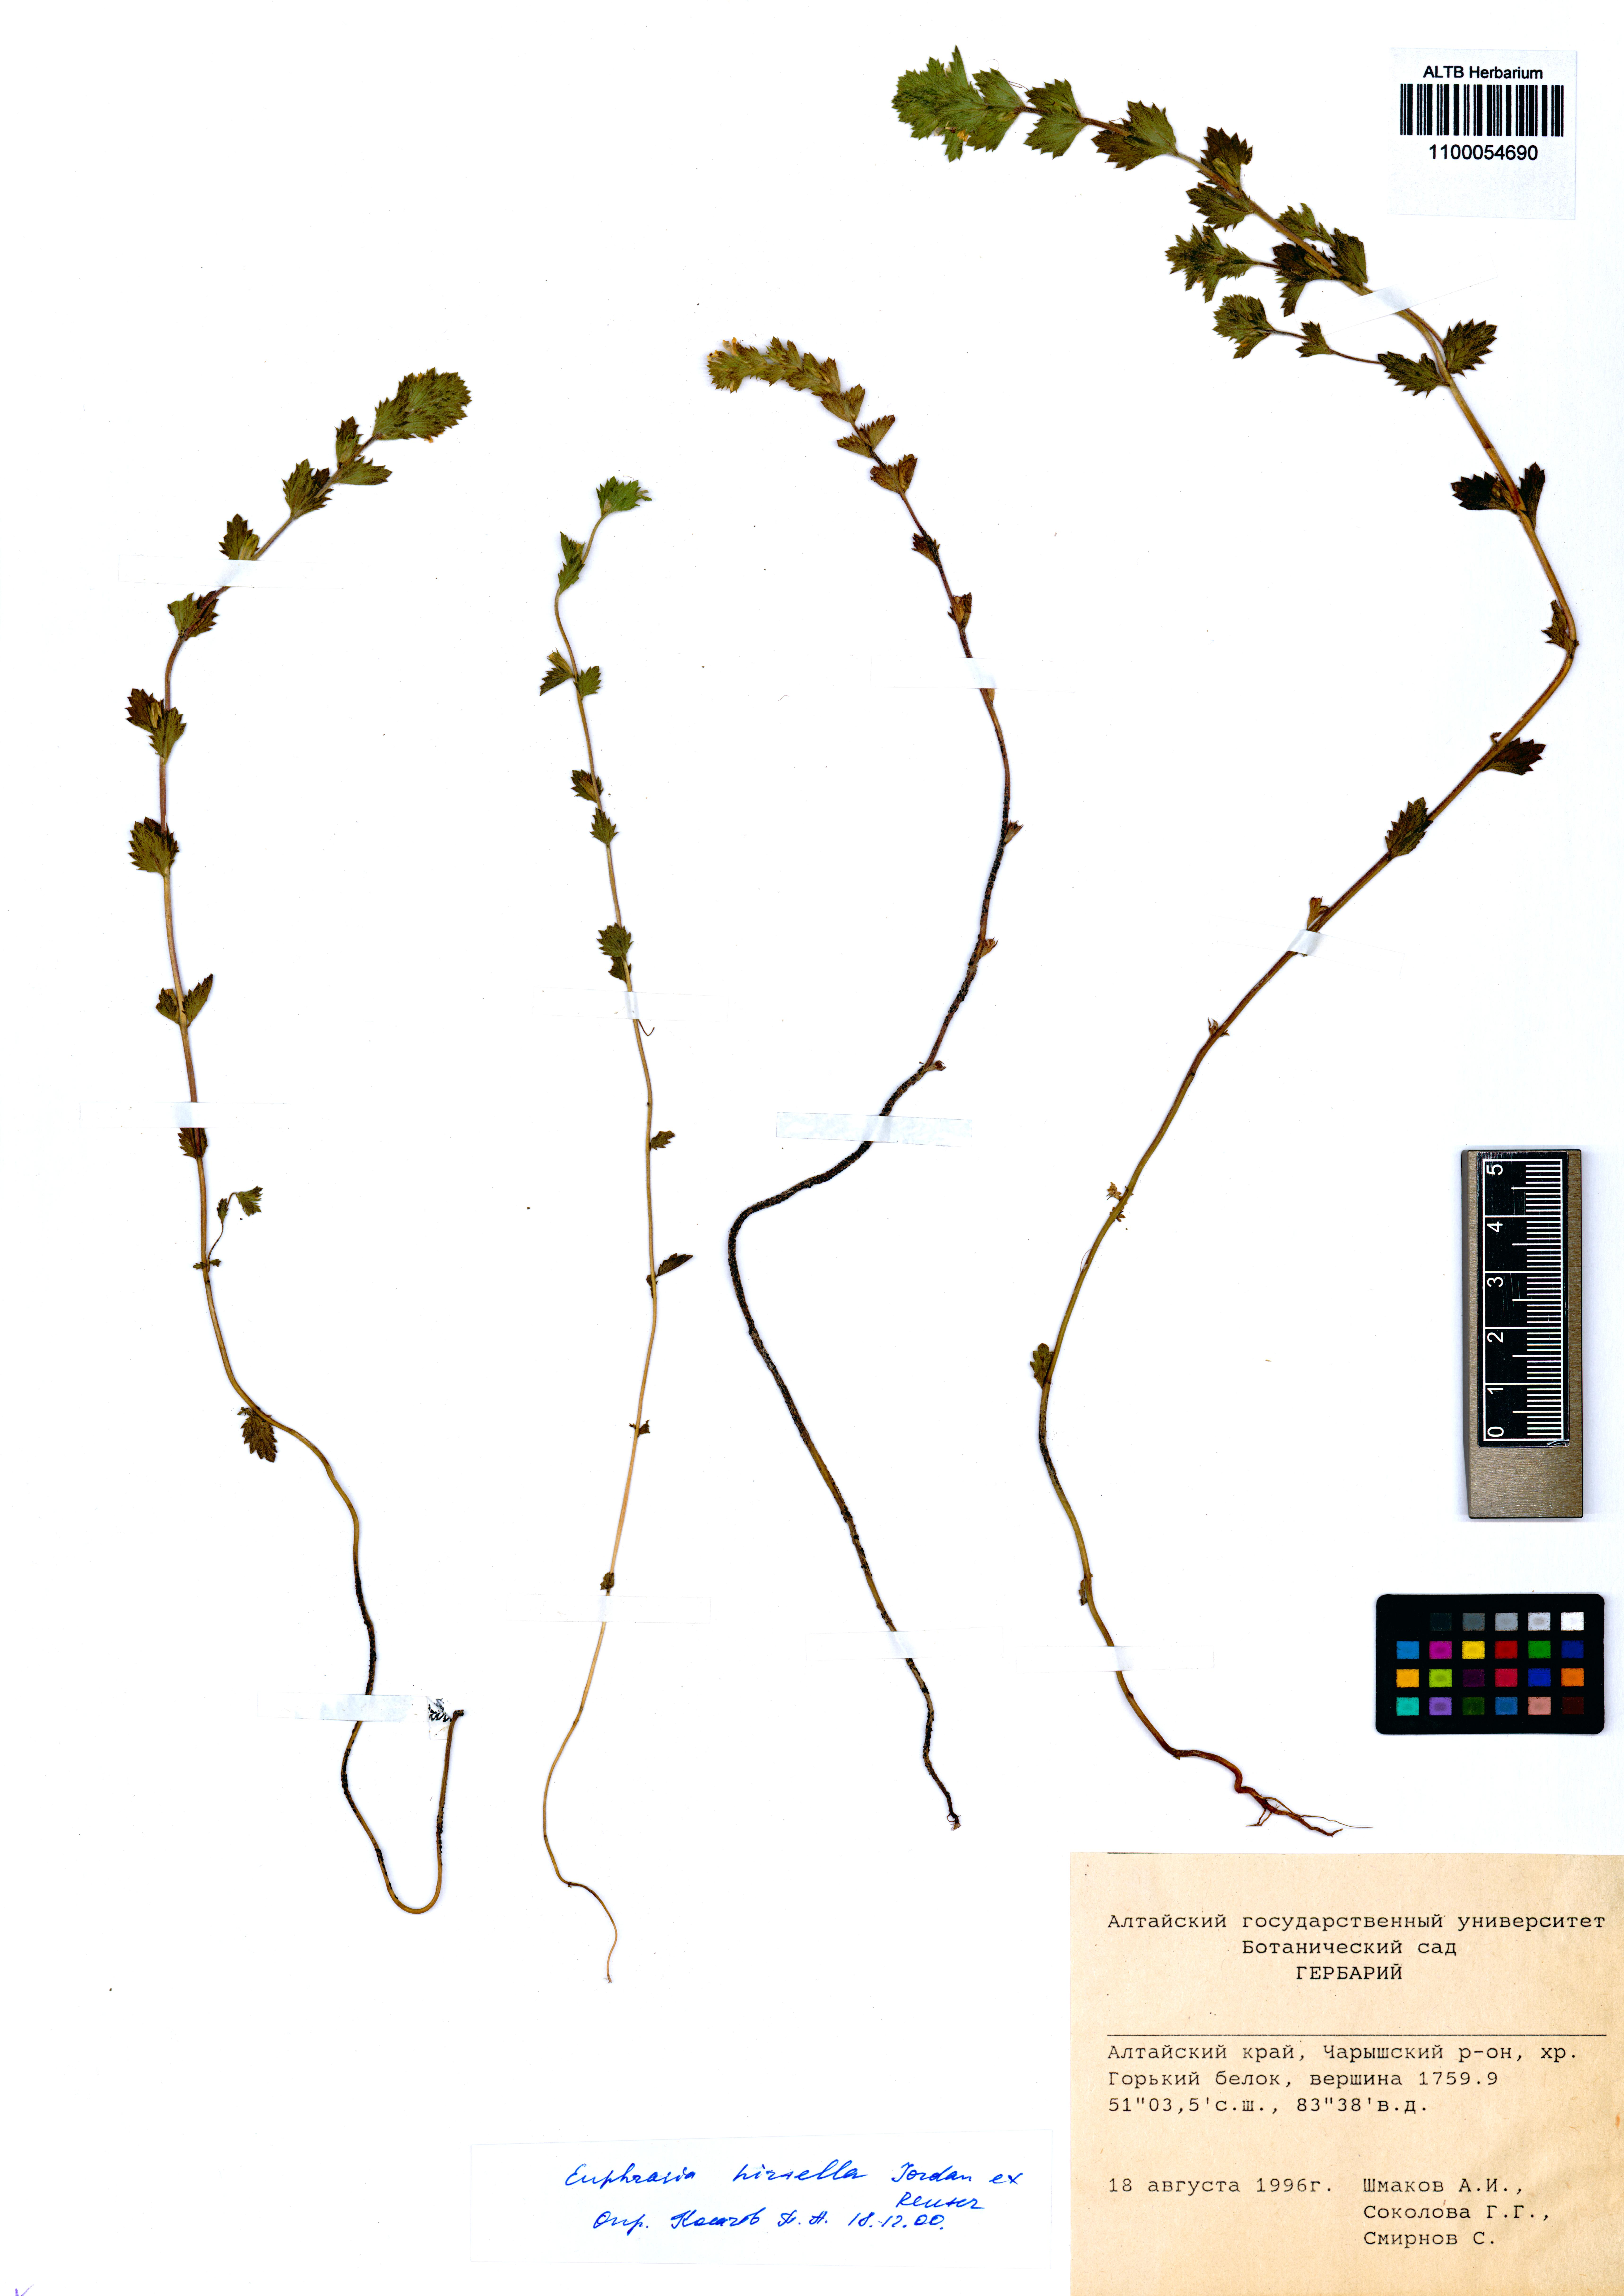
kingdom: Plantae
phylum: Tracheophyta
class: Magnoliopsida
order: Lamiales
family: Orobanchaceae
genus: Euphrasia
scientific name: Euphrasia hirtella
